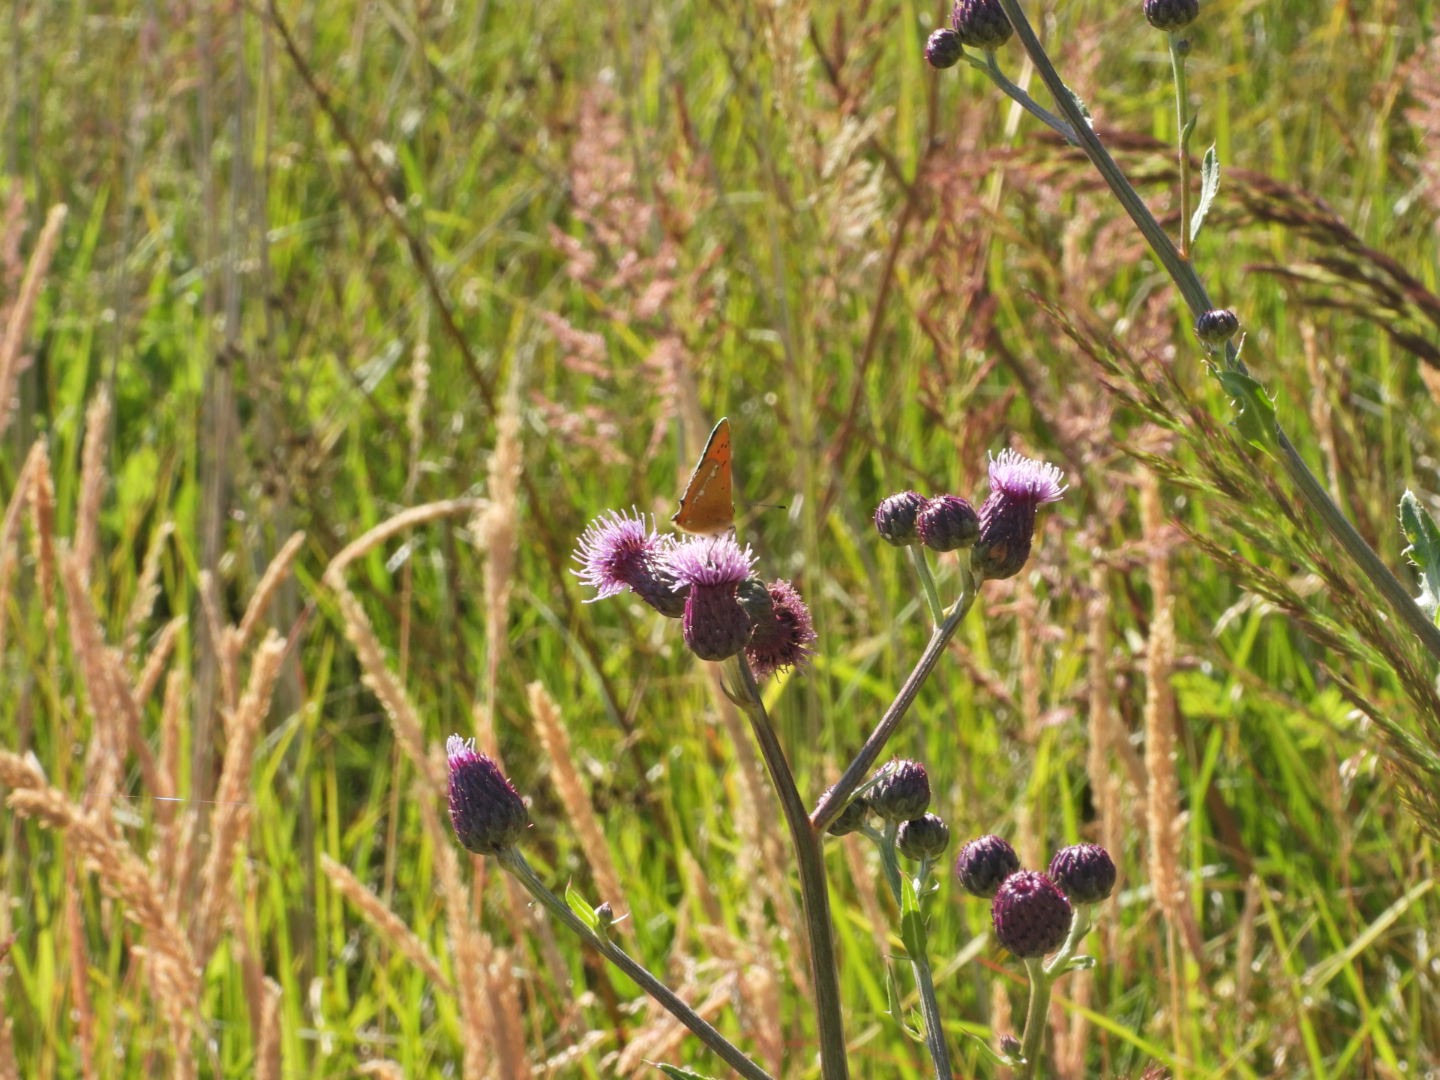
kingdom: Animalia
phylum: Arthropoda
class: Insecta
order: Lepidoptera
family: Lycaenidae
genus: Lycaena
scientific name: Lycaena virgaureae
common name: Dukatsommerfugl
